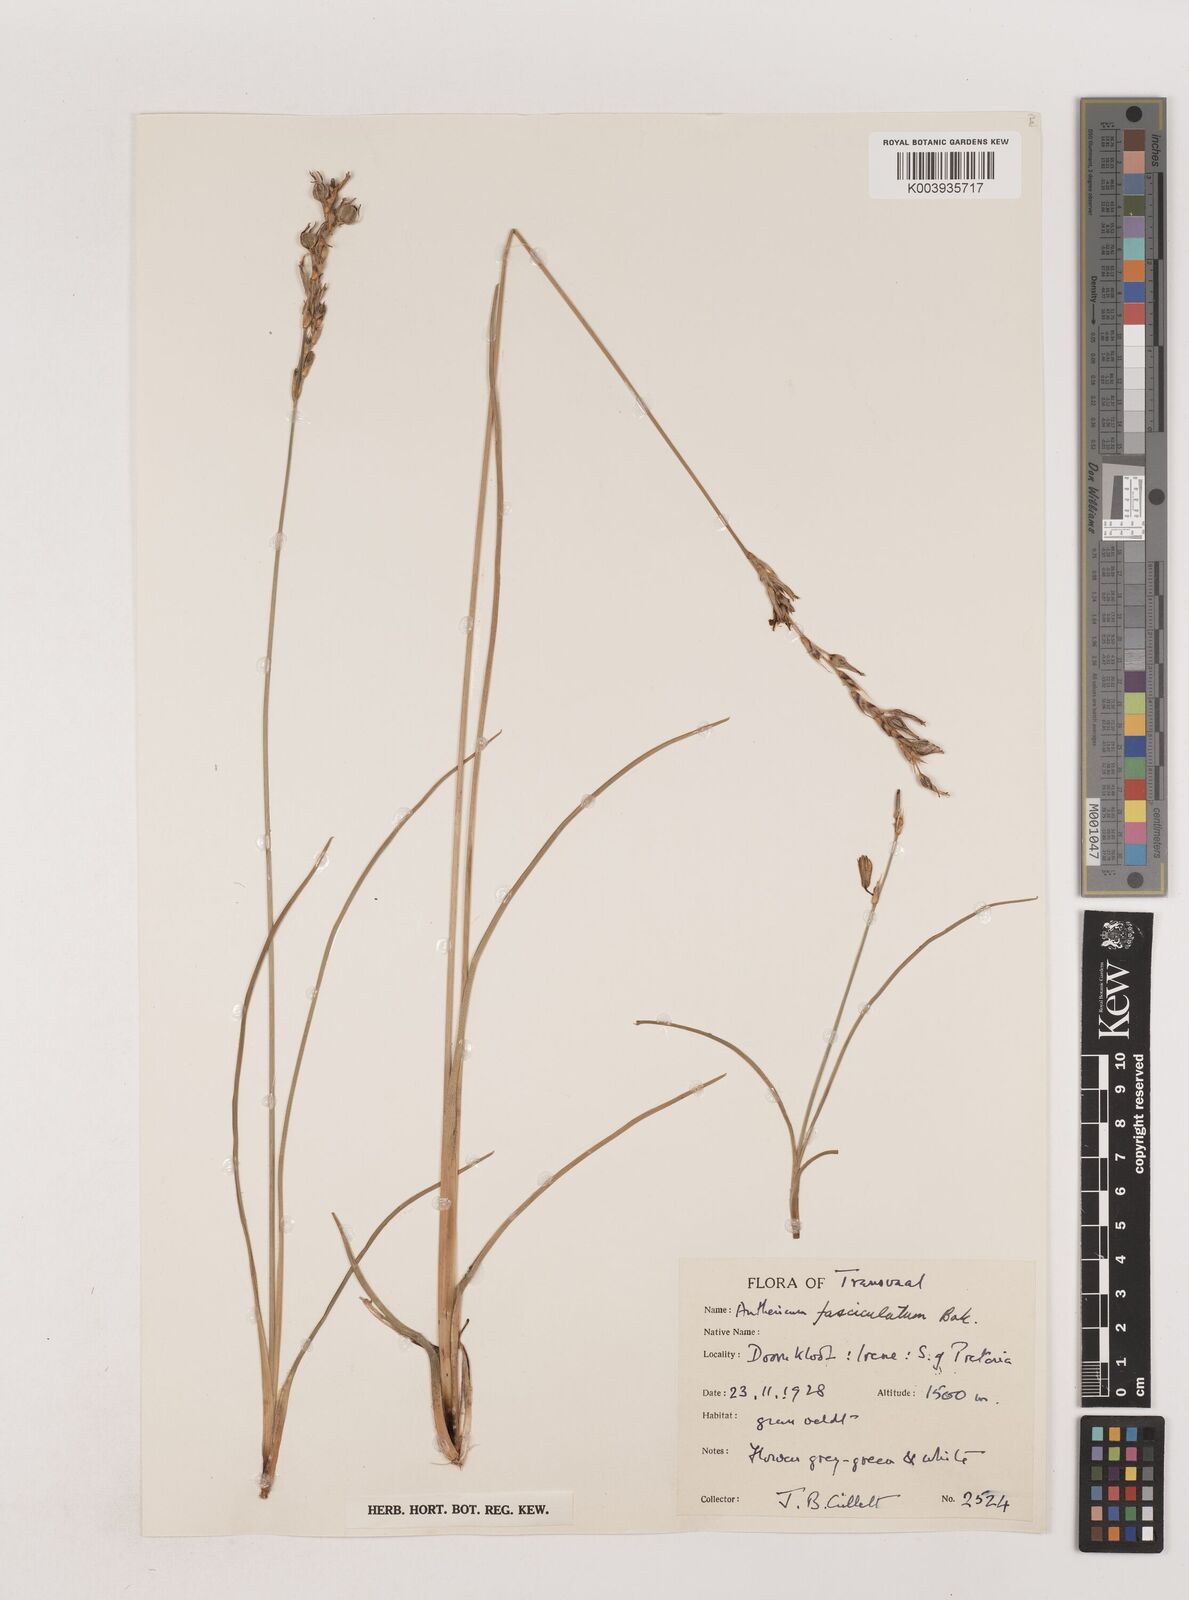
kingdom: Plantae
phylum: Tracheophyta
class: Liliopsida
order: Asparagales
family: Asparagaceae
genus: Chlorophytum
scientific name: Chlorophytum fasciculatum
